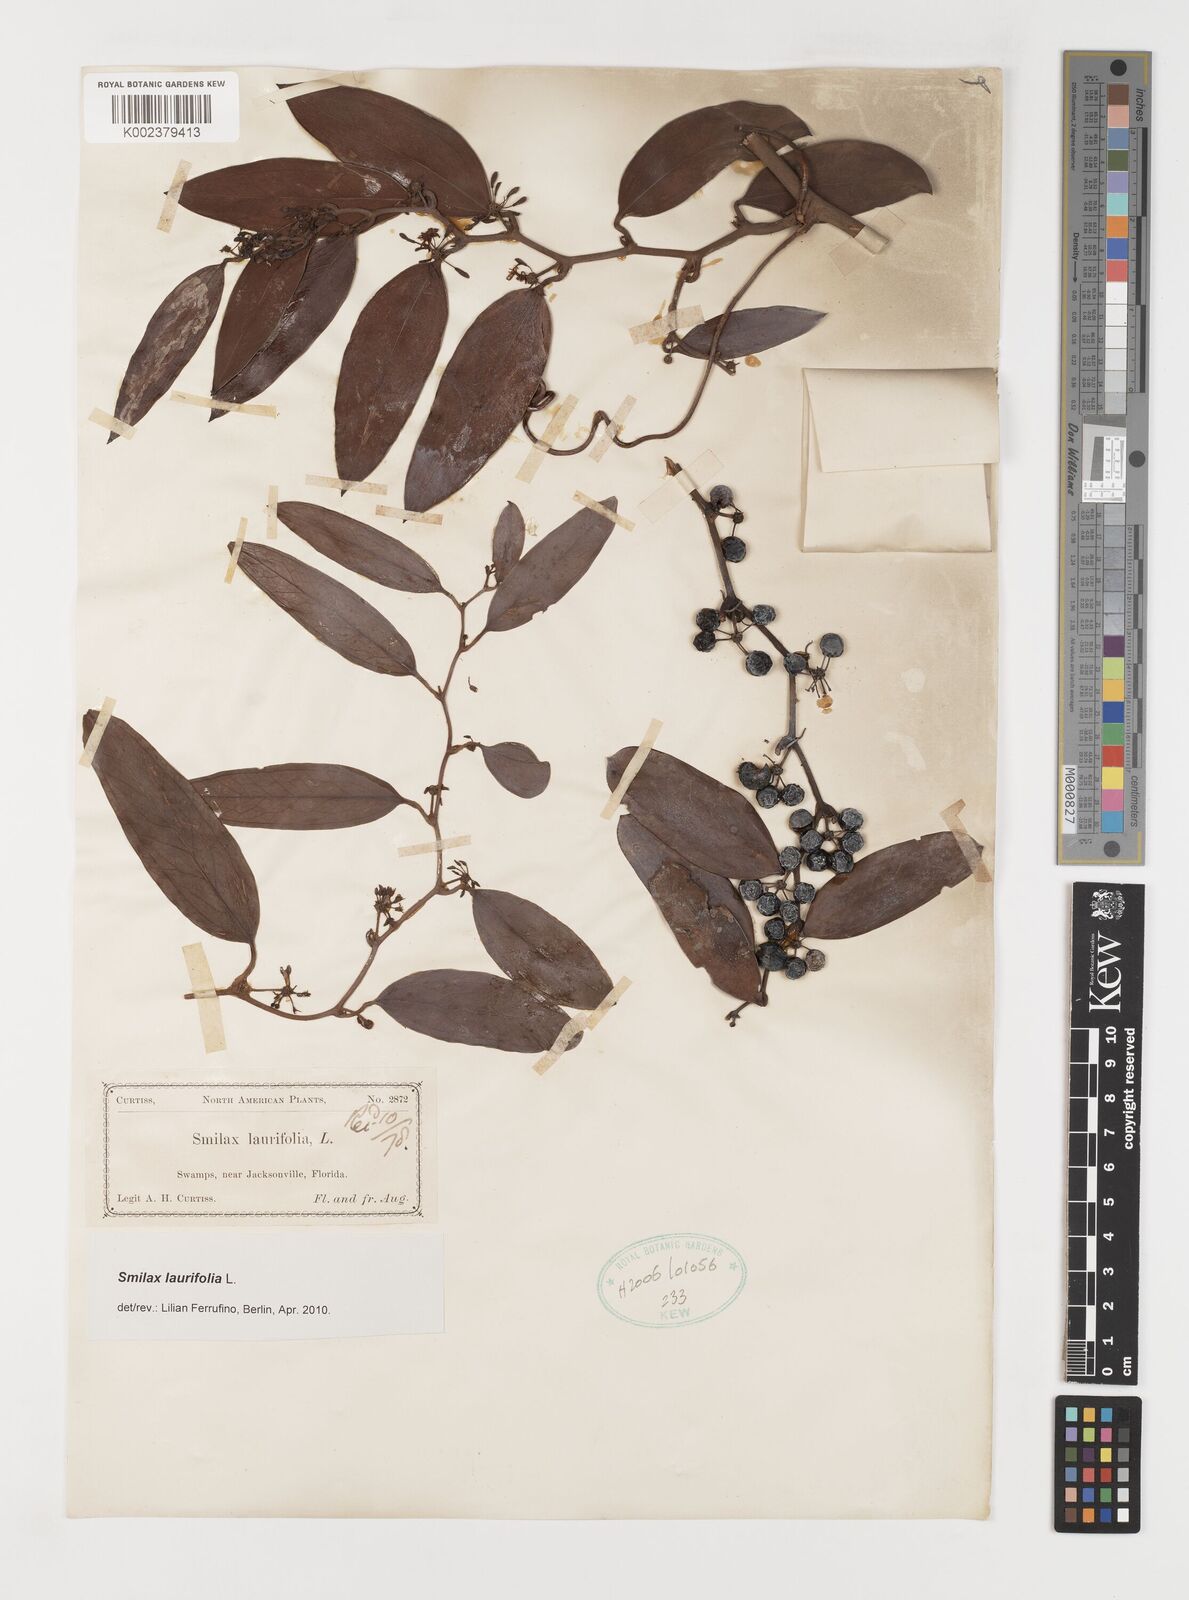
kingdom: Plantae
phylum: Tracheophyta
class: Liliopsida
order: Liliales
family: Smilacaceae
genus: Smilax
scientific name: Smilax laurifolia
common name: Bamboovine
